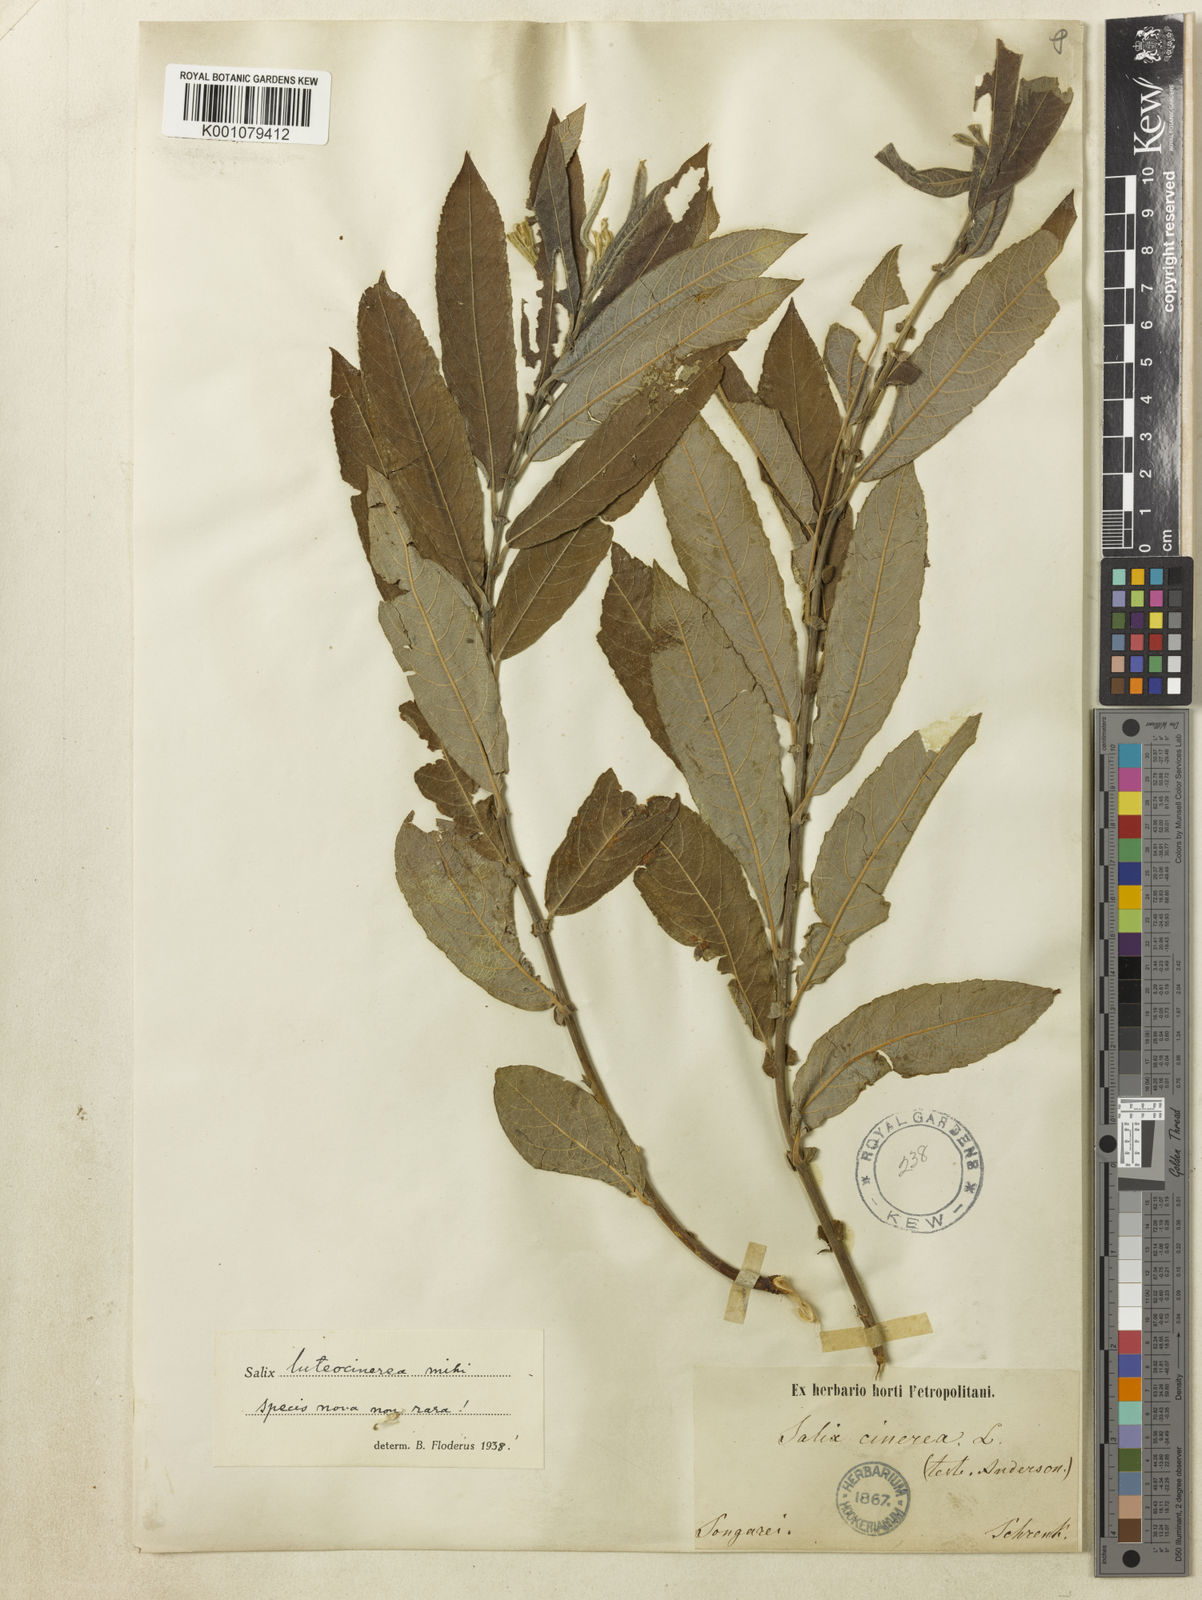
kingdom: Plantae
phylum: Tracheophyta
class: Magnoliopsida
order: Malpighiales
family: Salicaceae
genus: Salix
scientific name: Salix
